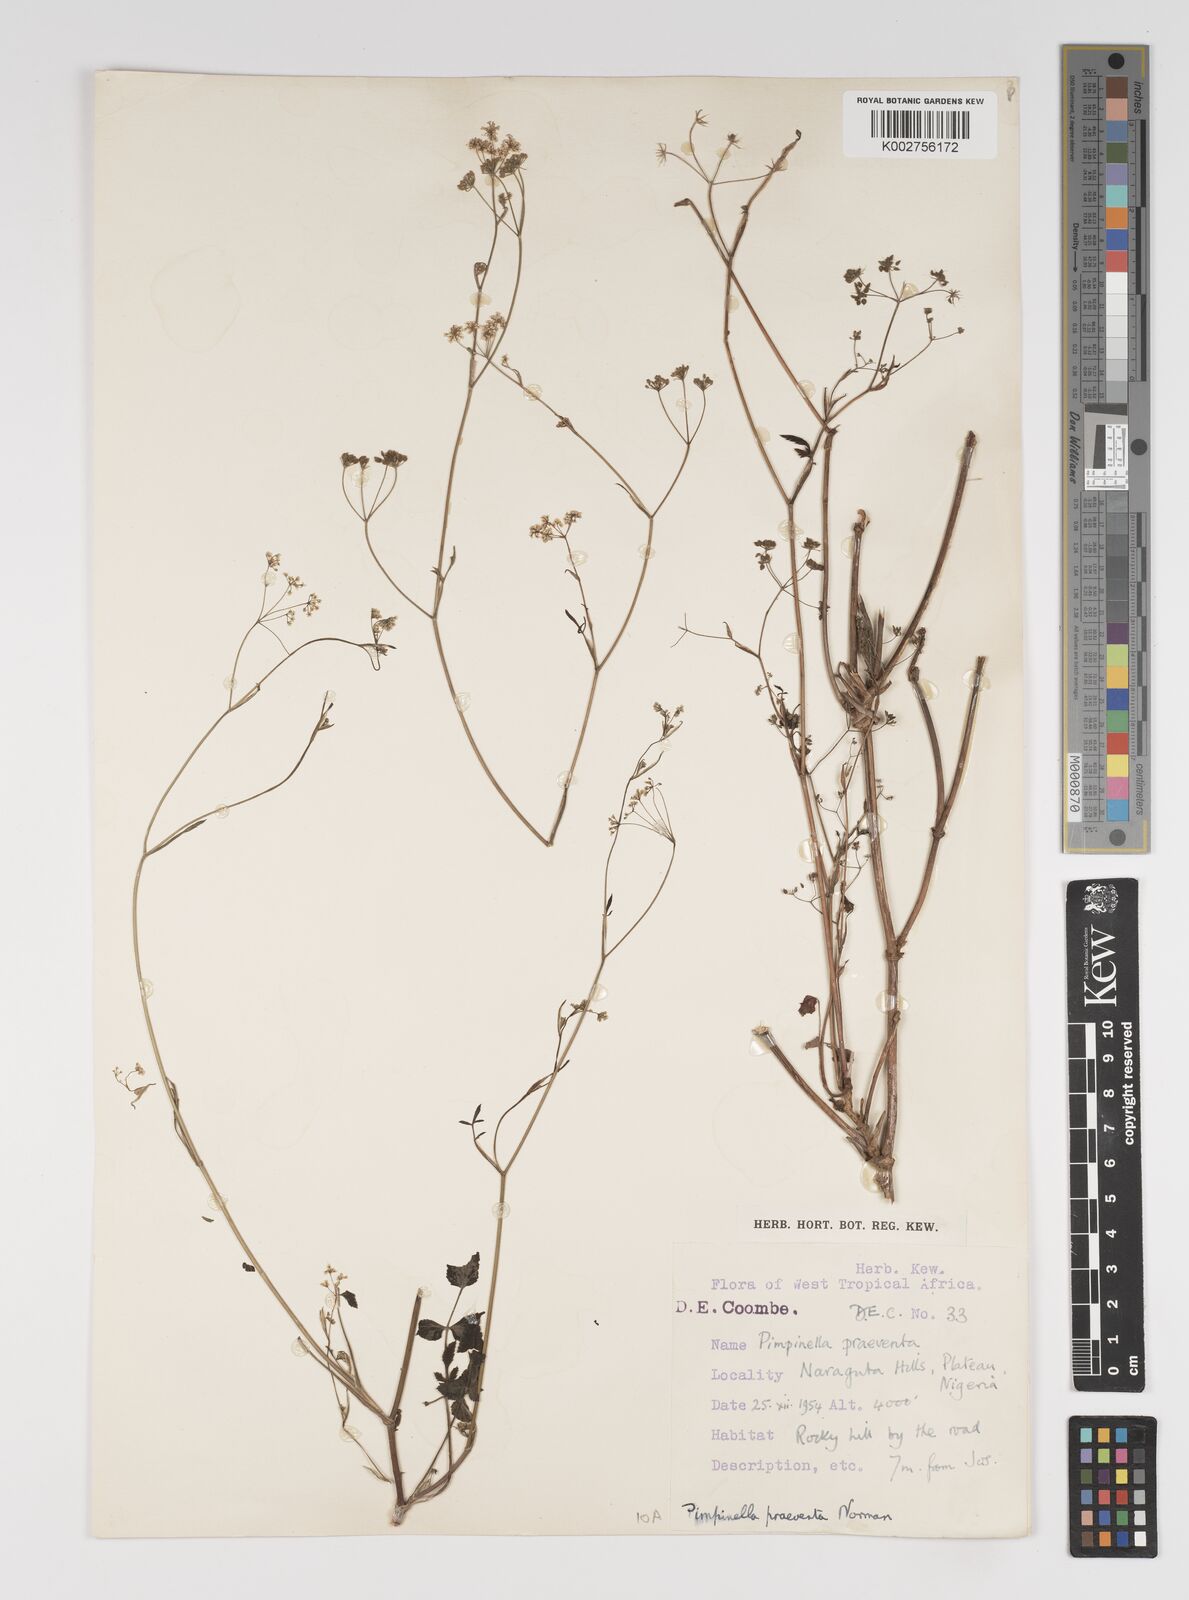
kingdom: Plantae
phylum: Tracheophyta
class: Magnoliopsida
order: Apiales
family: Apiaceae
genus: Pimpinella
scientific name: Pimpinella hirtella
